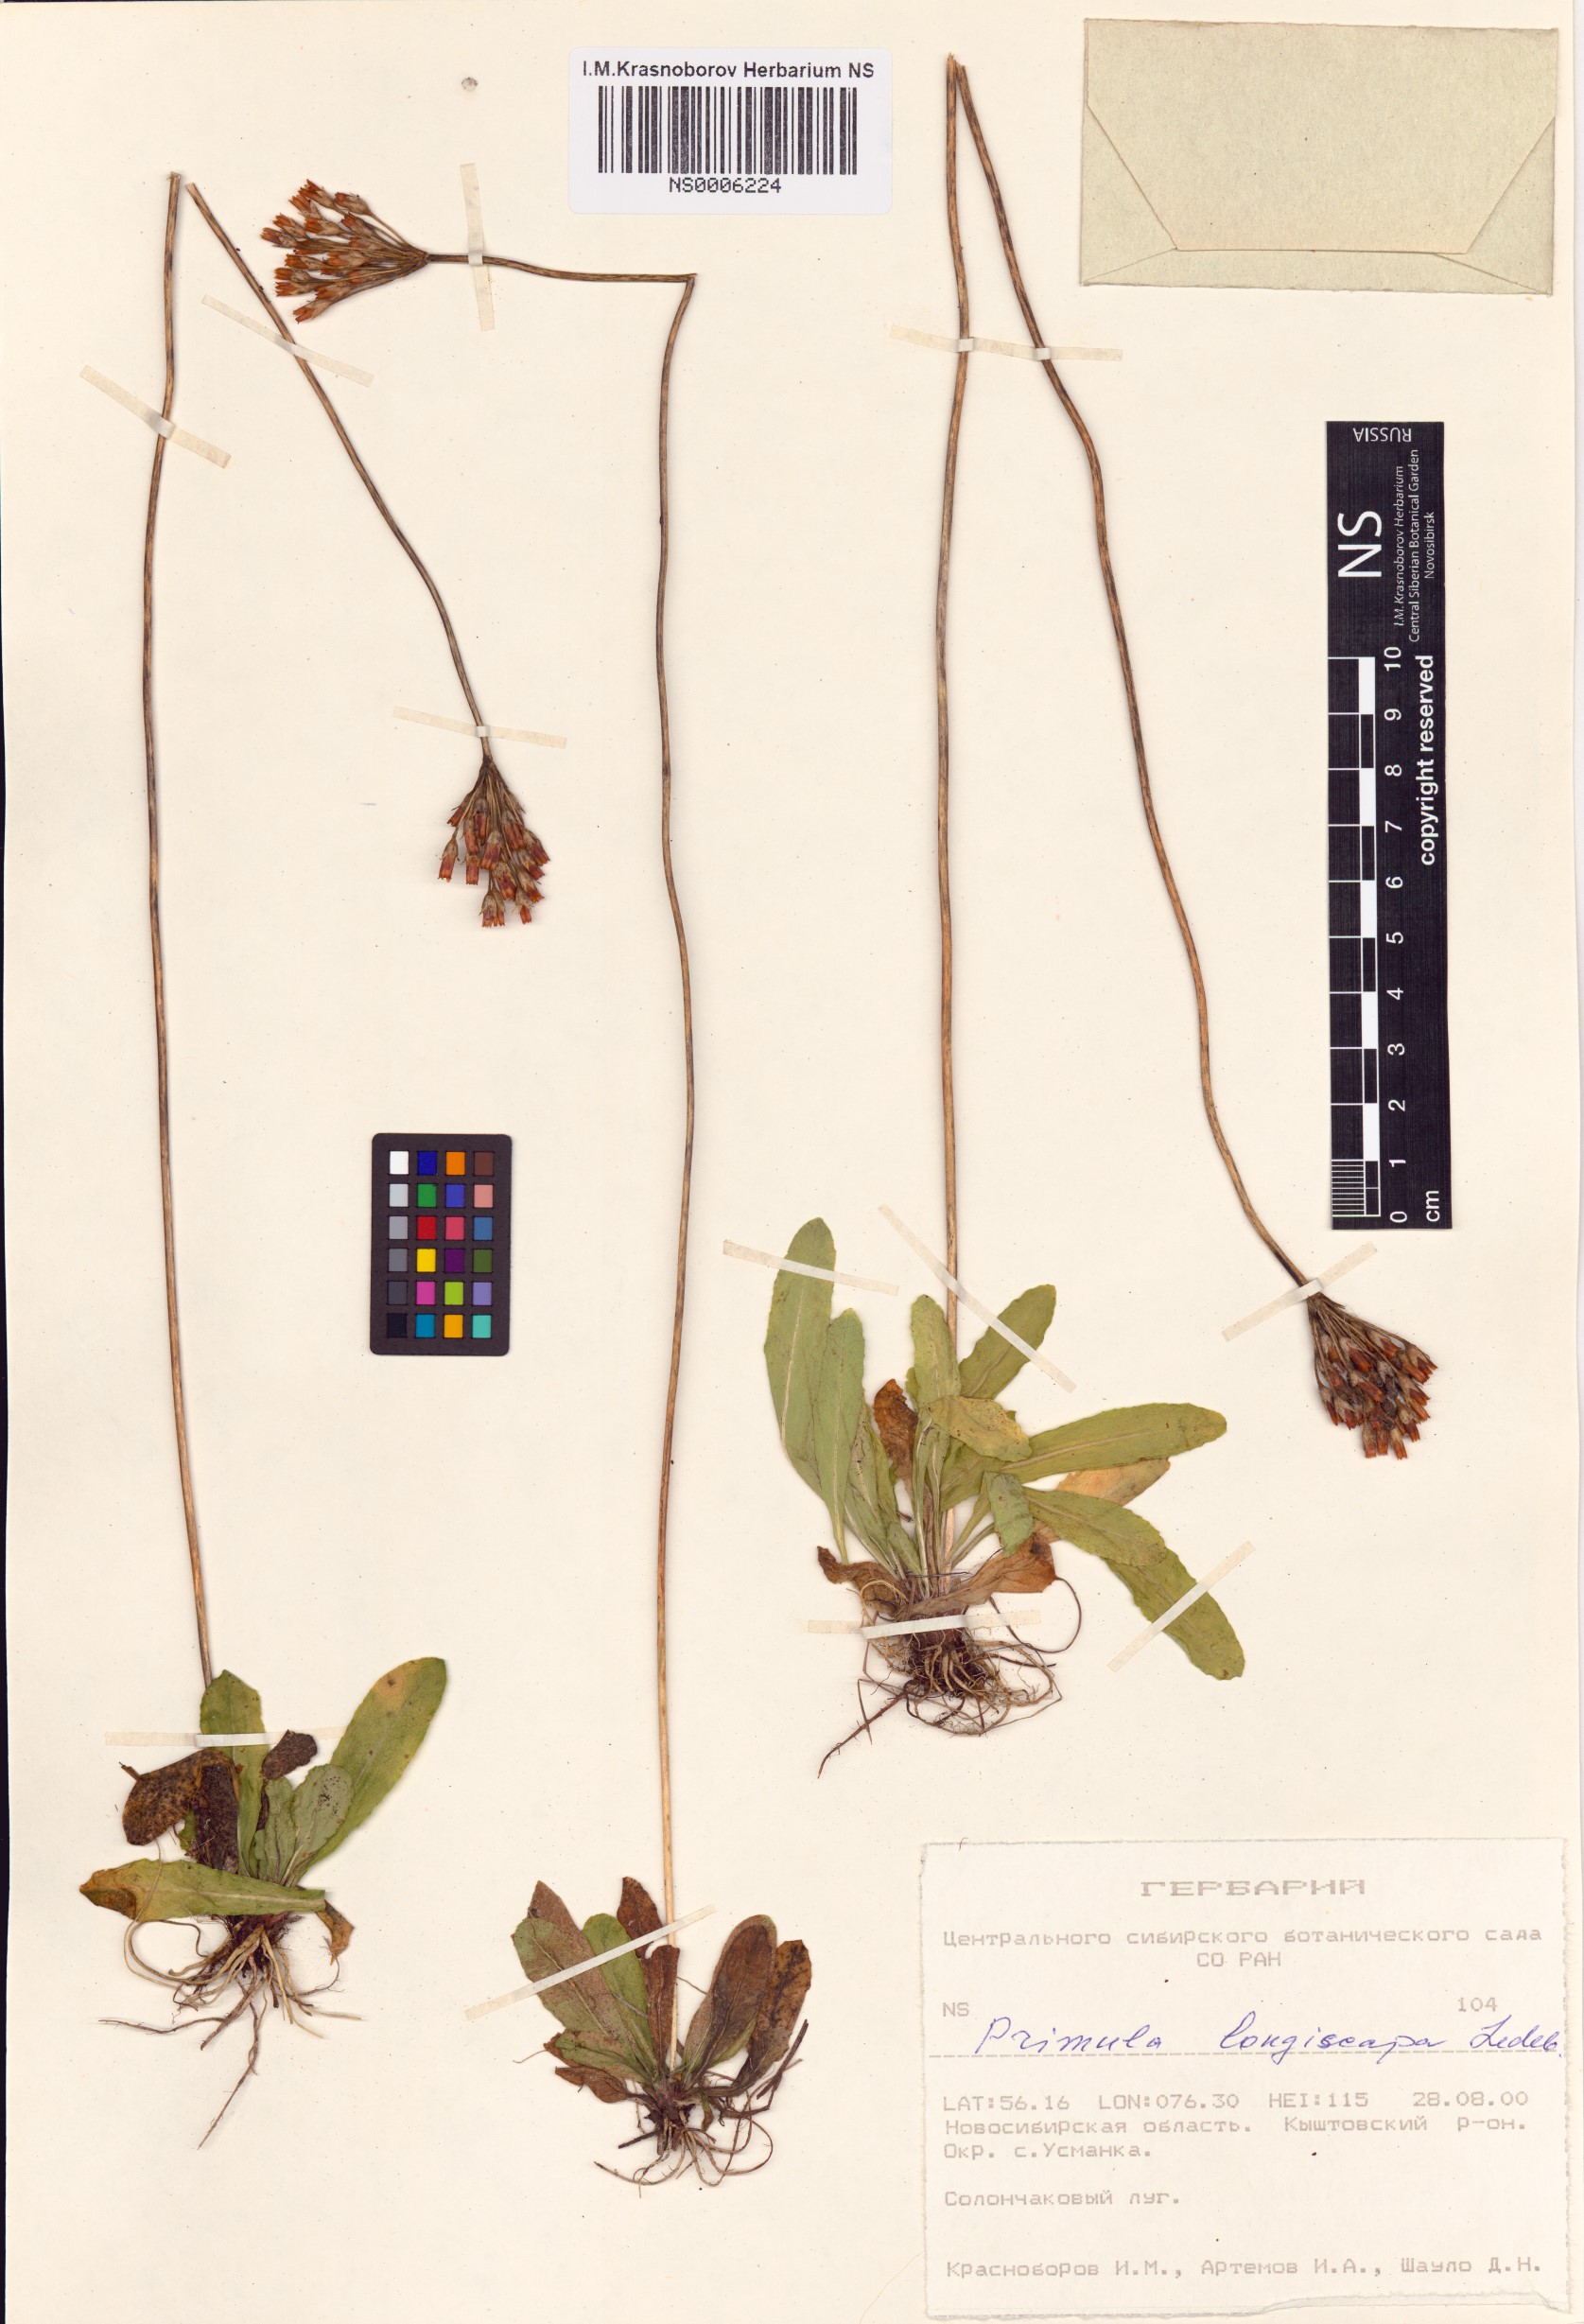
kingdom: Plantae
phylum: Tracheophyta
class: Magnoliopsida
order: Ericales
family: Primulaceae
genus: Primula
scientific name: Primula longiscapa
